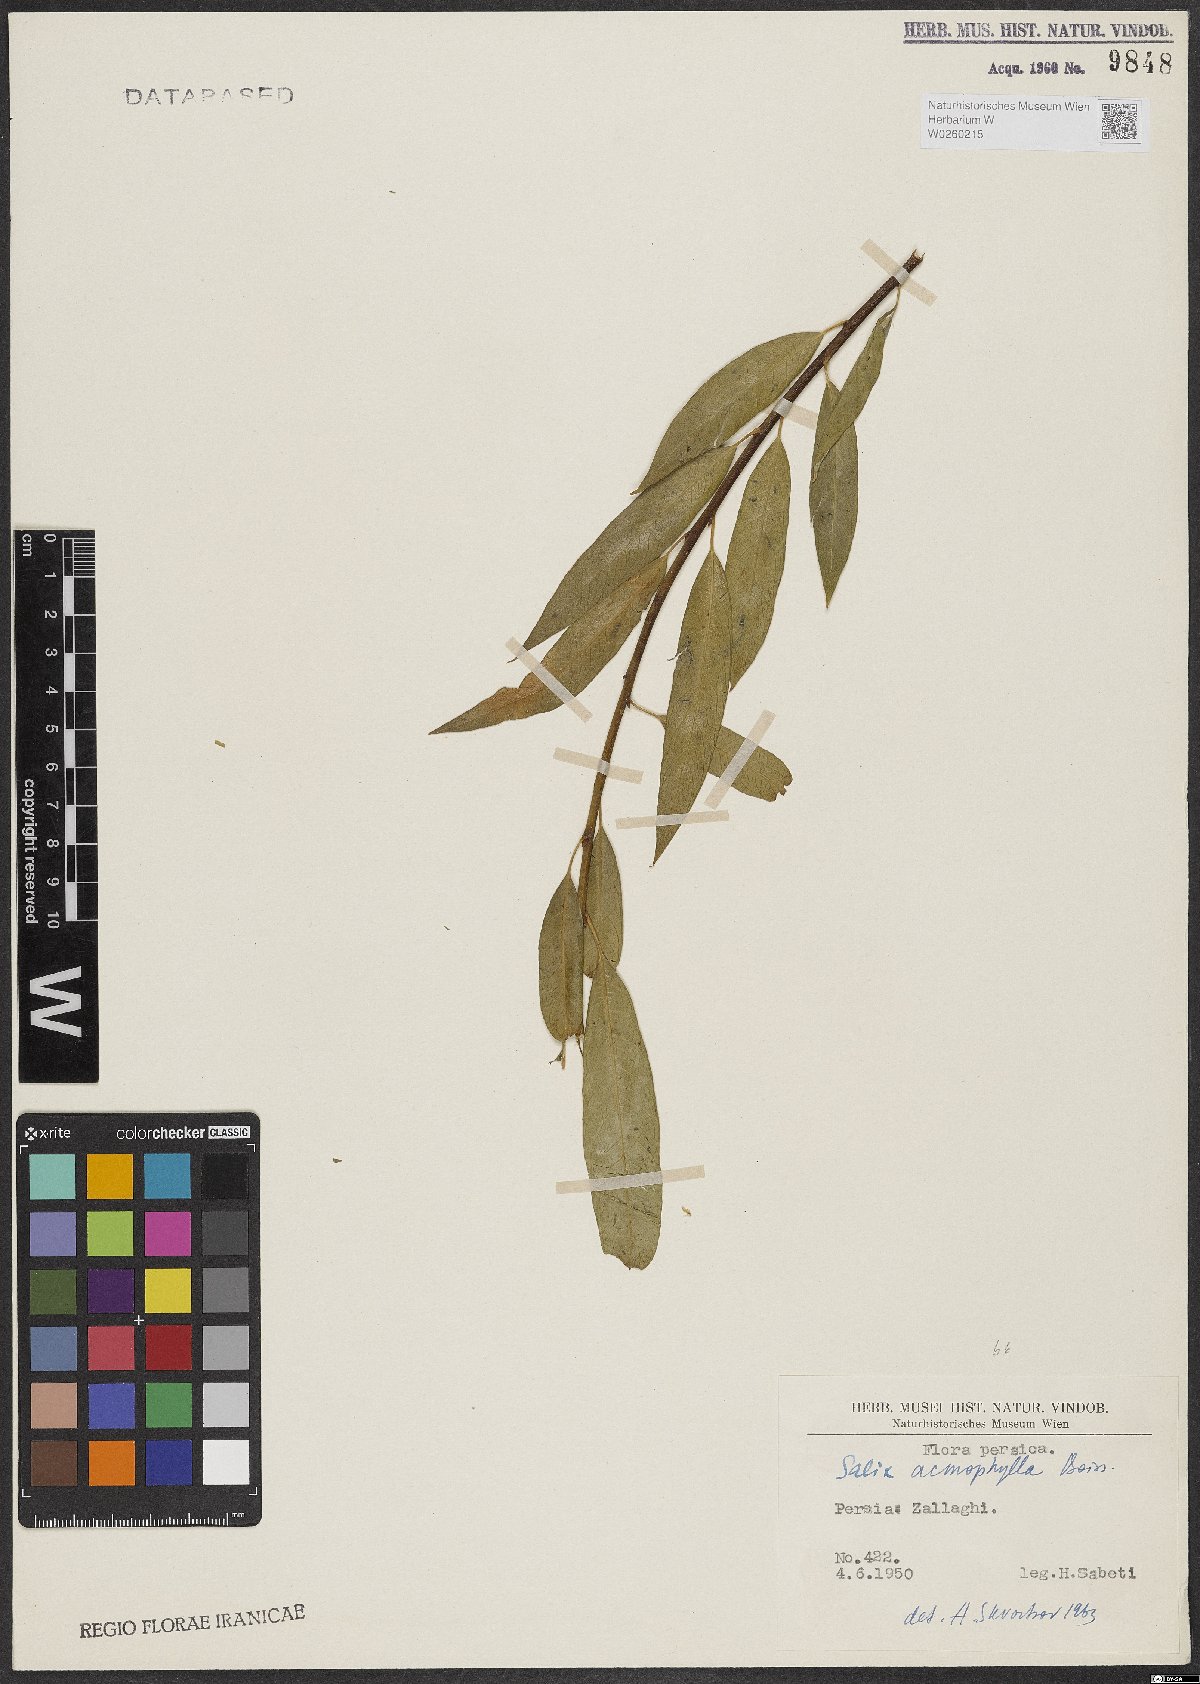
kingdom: Plantae
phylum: Tracheophyta
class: Magnoliopsida
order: Malpighiales
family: Salicaceae
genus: Salix
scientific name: Salix acmophylla
